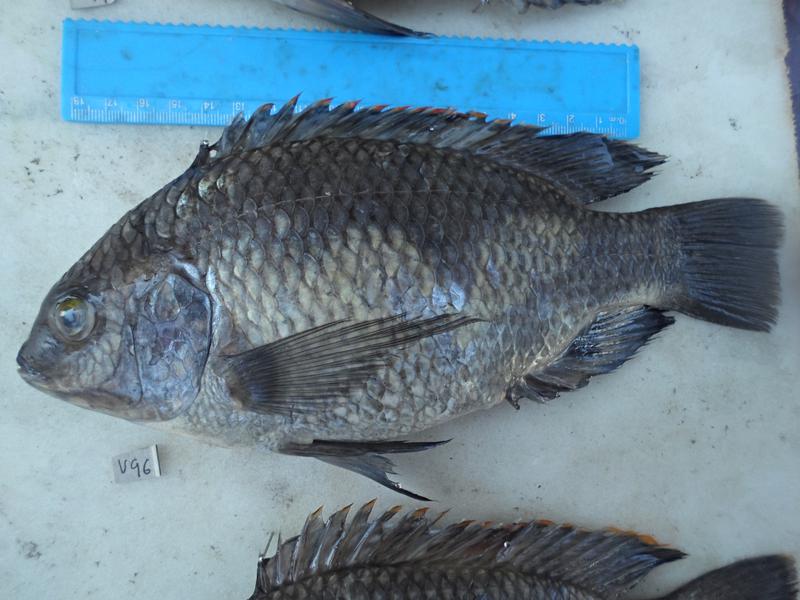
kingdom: Animalia
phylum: Chordata
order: Perciformes
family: Cichlidae
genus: Oreochromis
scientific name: Oreochromis variabilis
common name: Victoria tilapia
